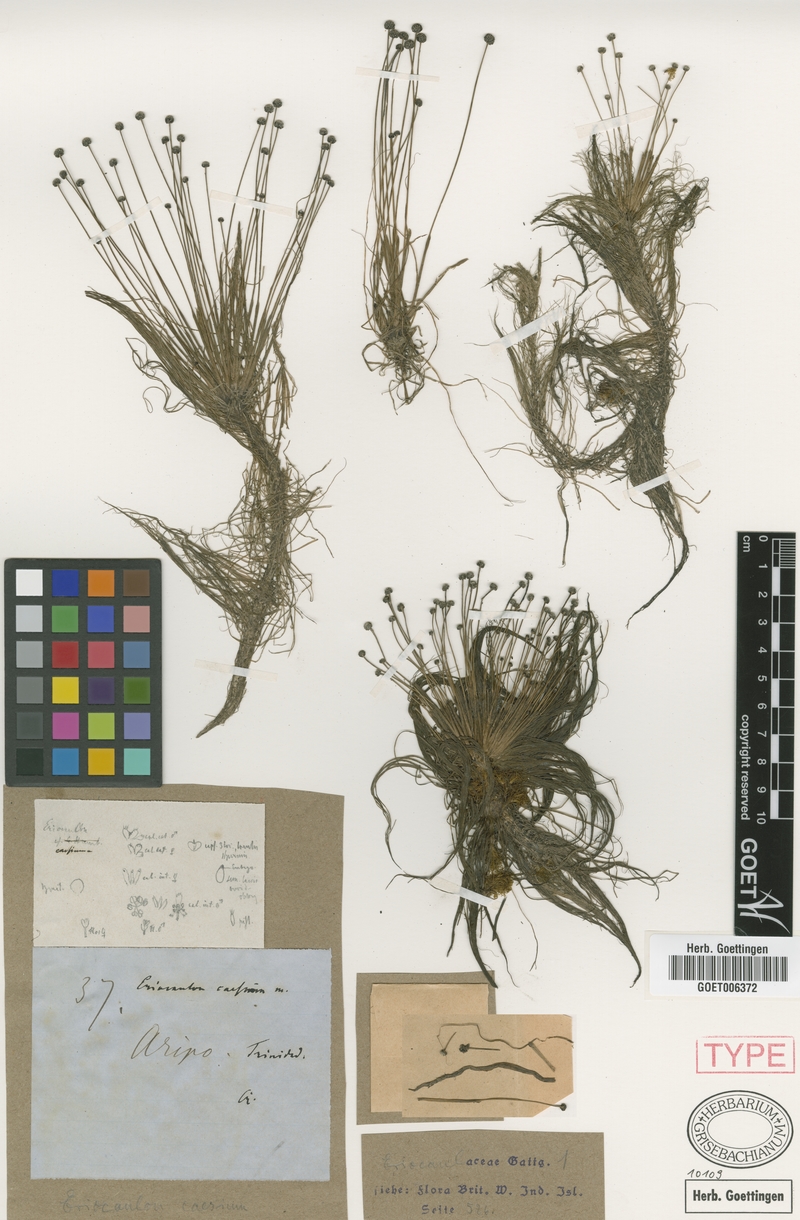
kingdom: Plantae
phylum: Tracheophyta
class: Liliopsida
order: Poales
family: Eriocaulaceae
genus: Eriocaulon
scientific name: Eriocaulon caesium
